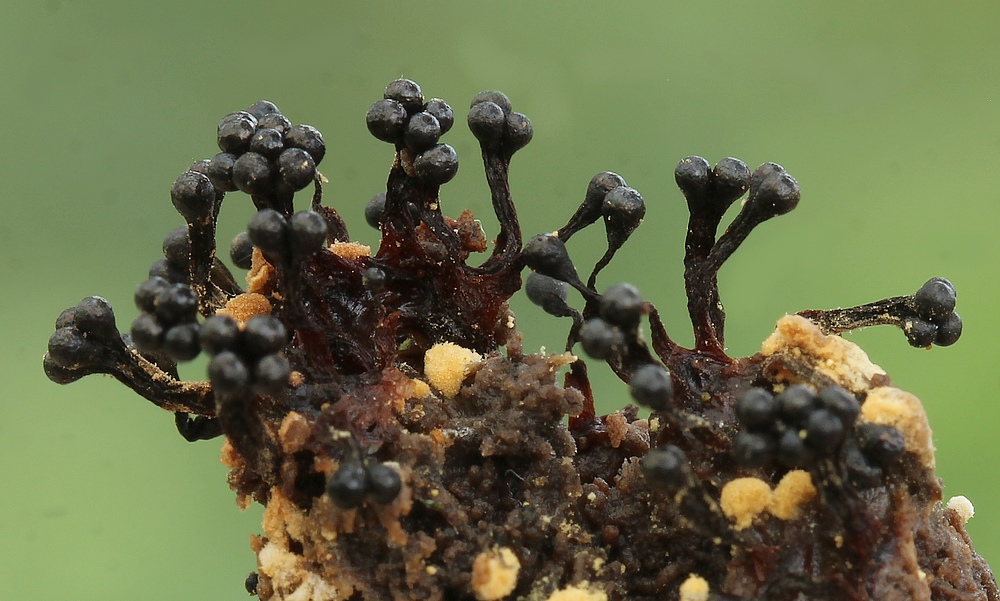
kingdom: Protozoa
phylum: Mycetozoa
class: Myxomycetes
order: Trichiales
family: Trichiaceae
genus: Metatrichia
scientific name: Metatrichia floriformis
